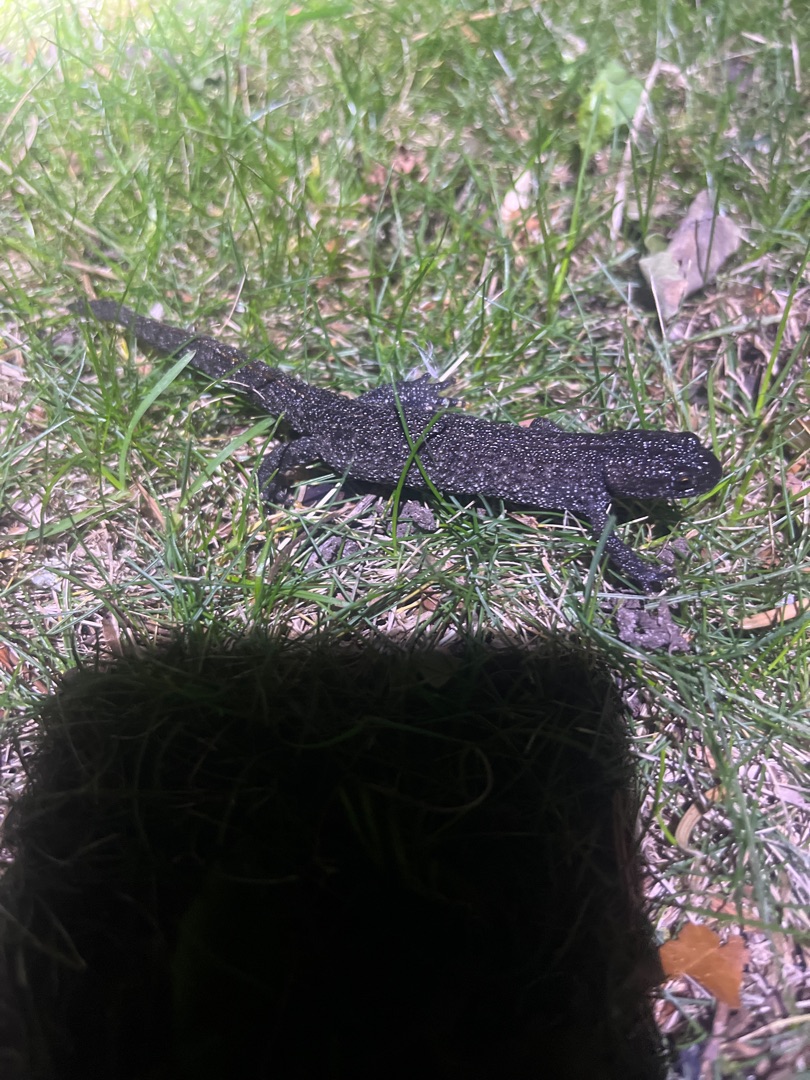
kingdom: Animalia
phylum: Chordata
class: Amphibia
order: Caudata
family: Salamandridae
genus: Triturus
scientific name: Triturus cristatus
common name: Stor vandsalamander
